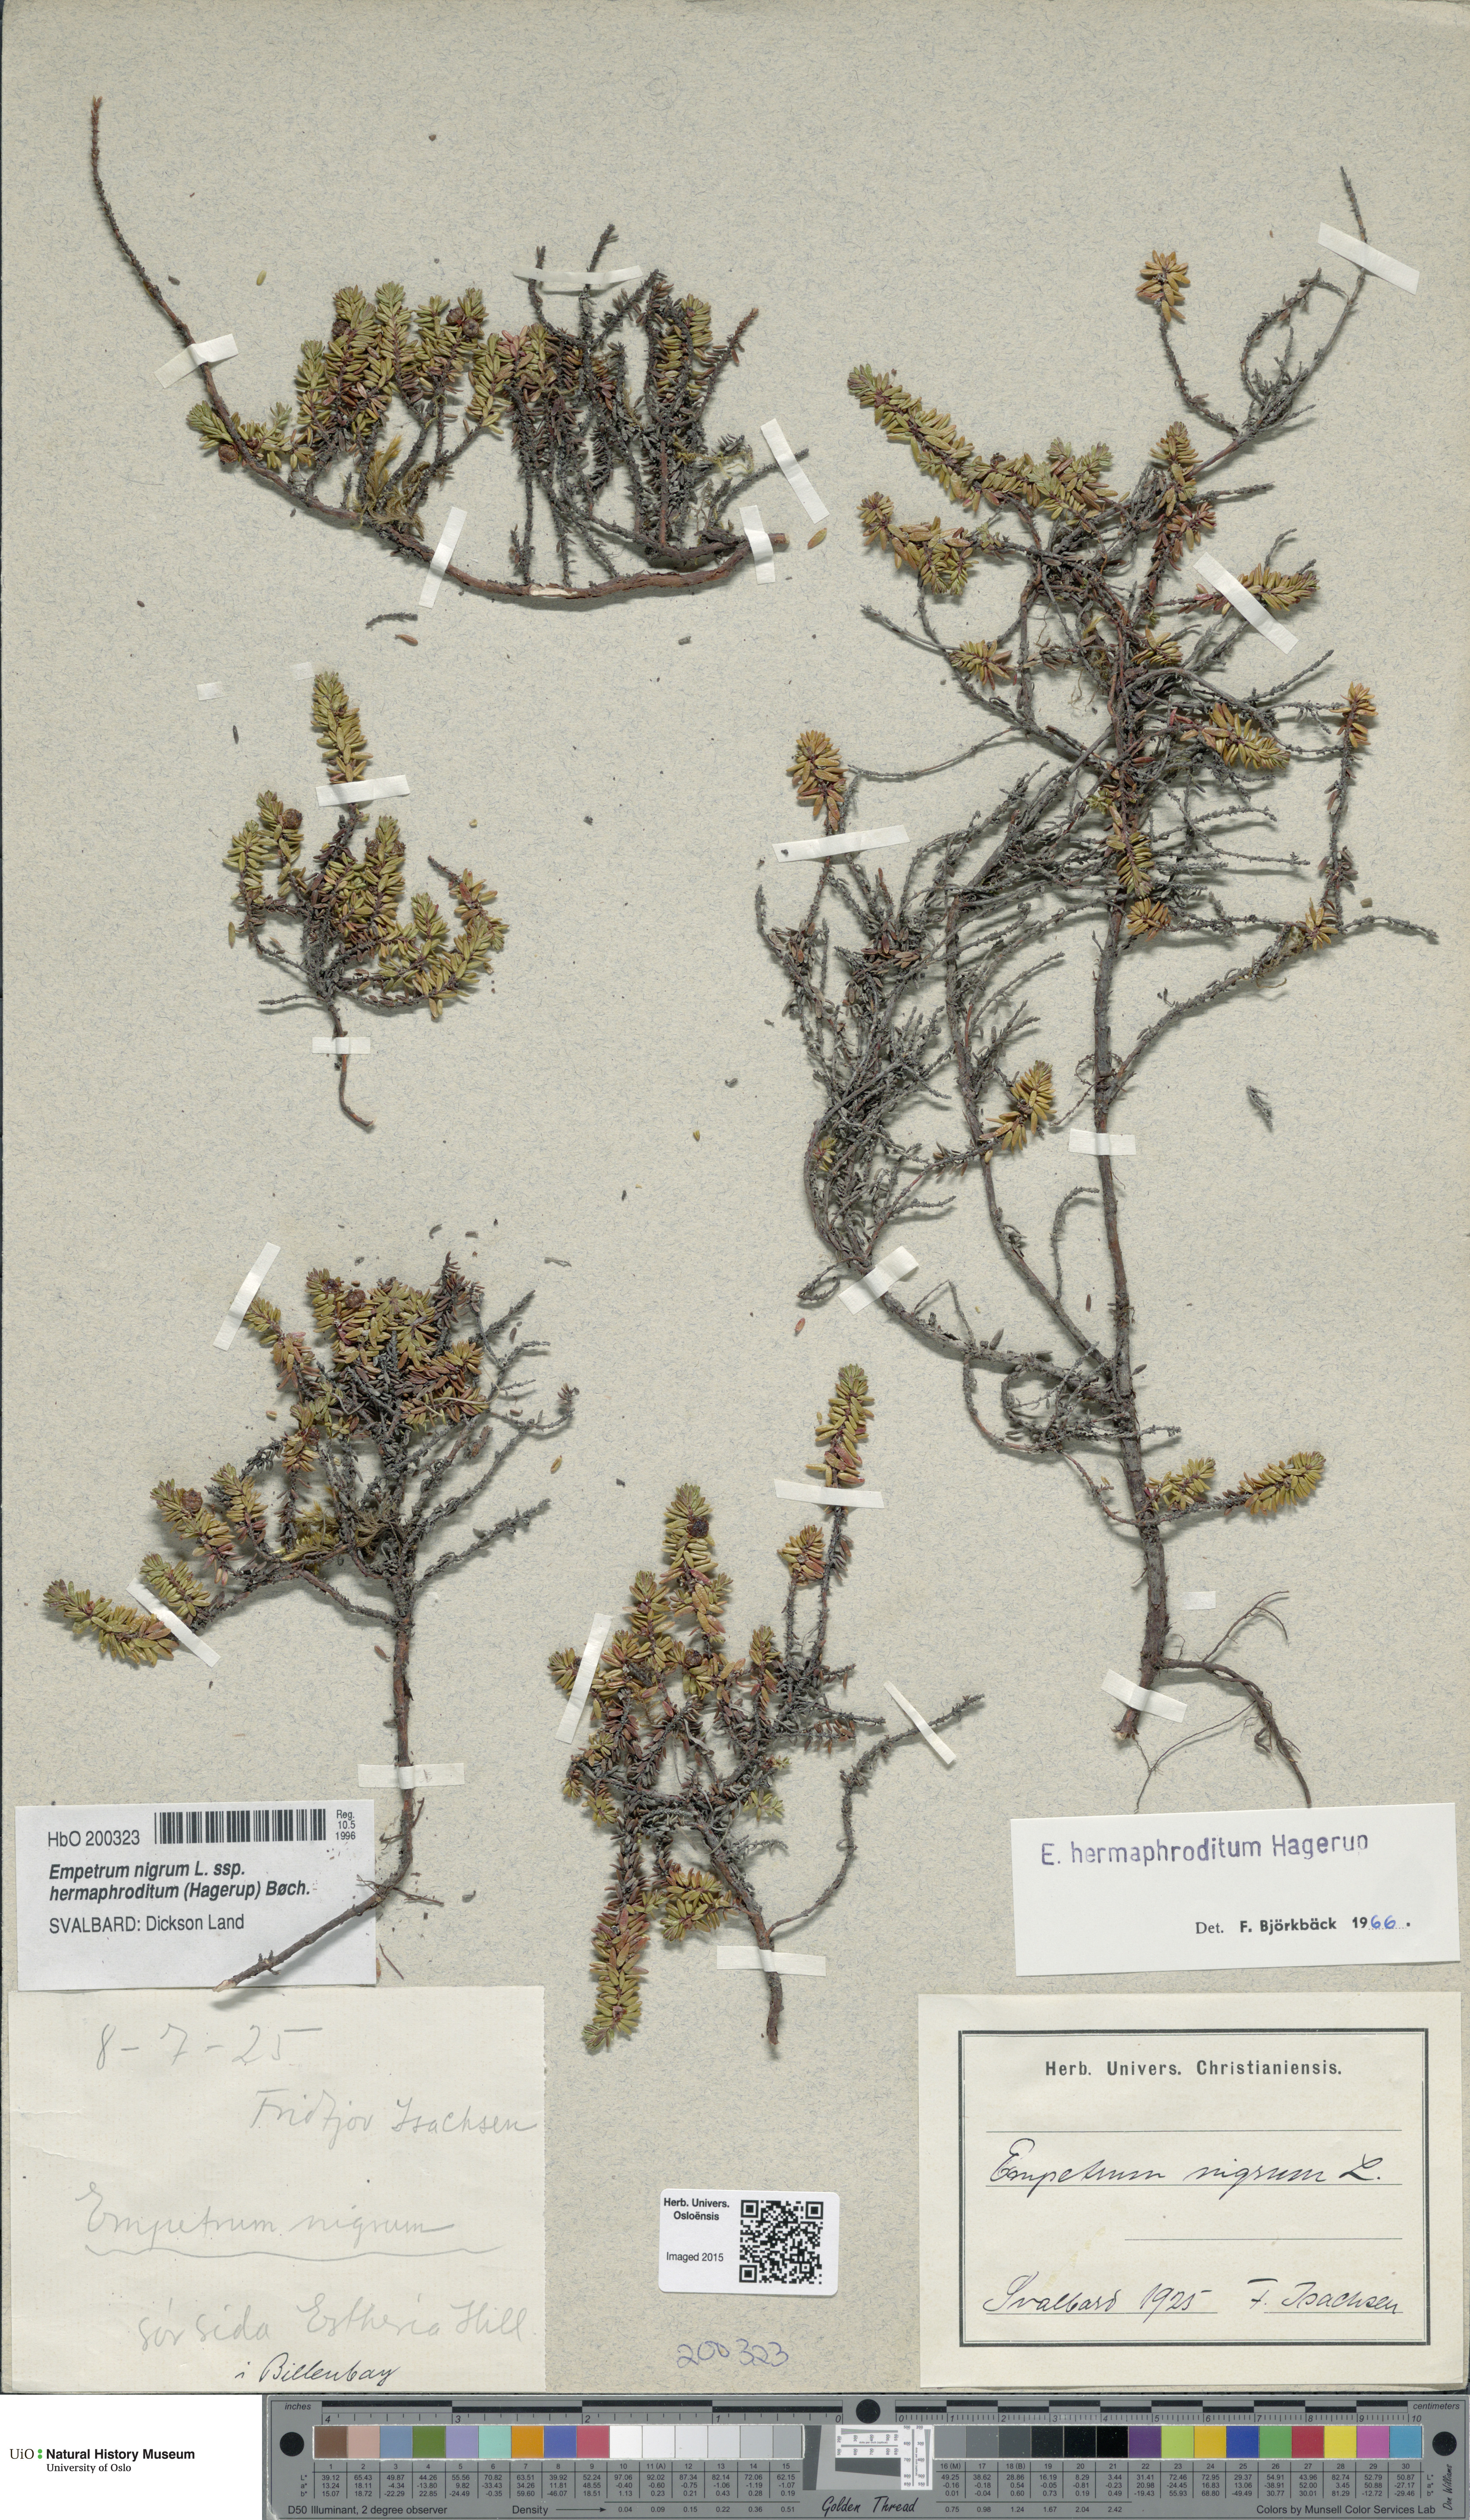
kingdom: Plantae
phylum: Tracheophyta
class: Magnoliopsida
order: Ericales
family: Ericaceae
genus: Empetrum
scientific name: Empetrum hermaphroditum
